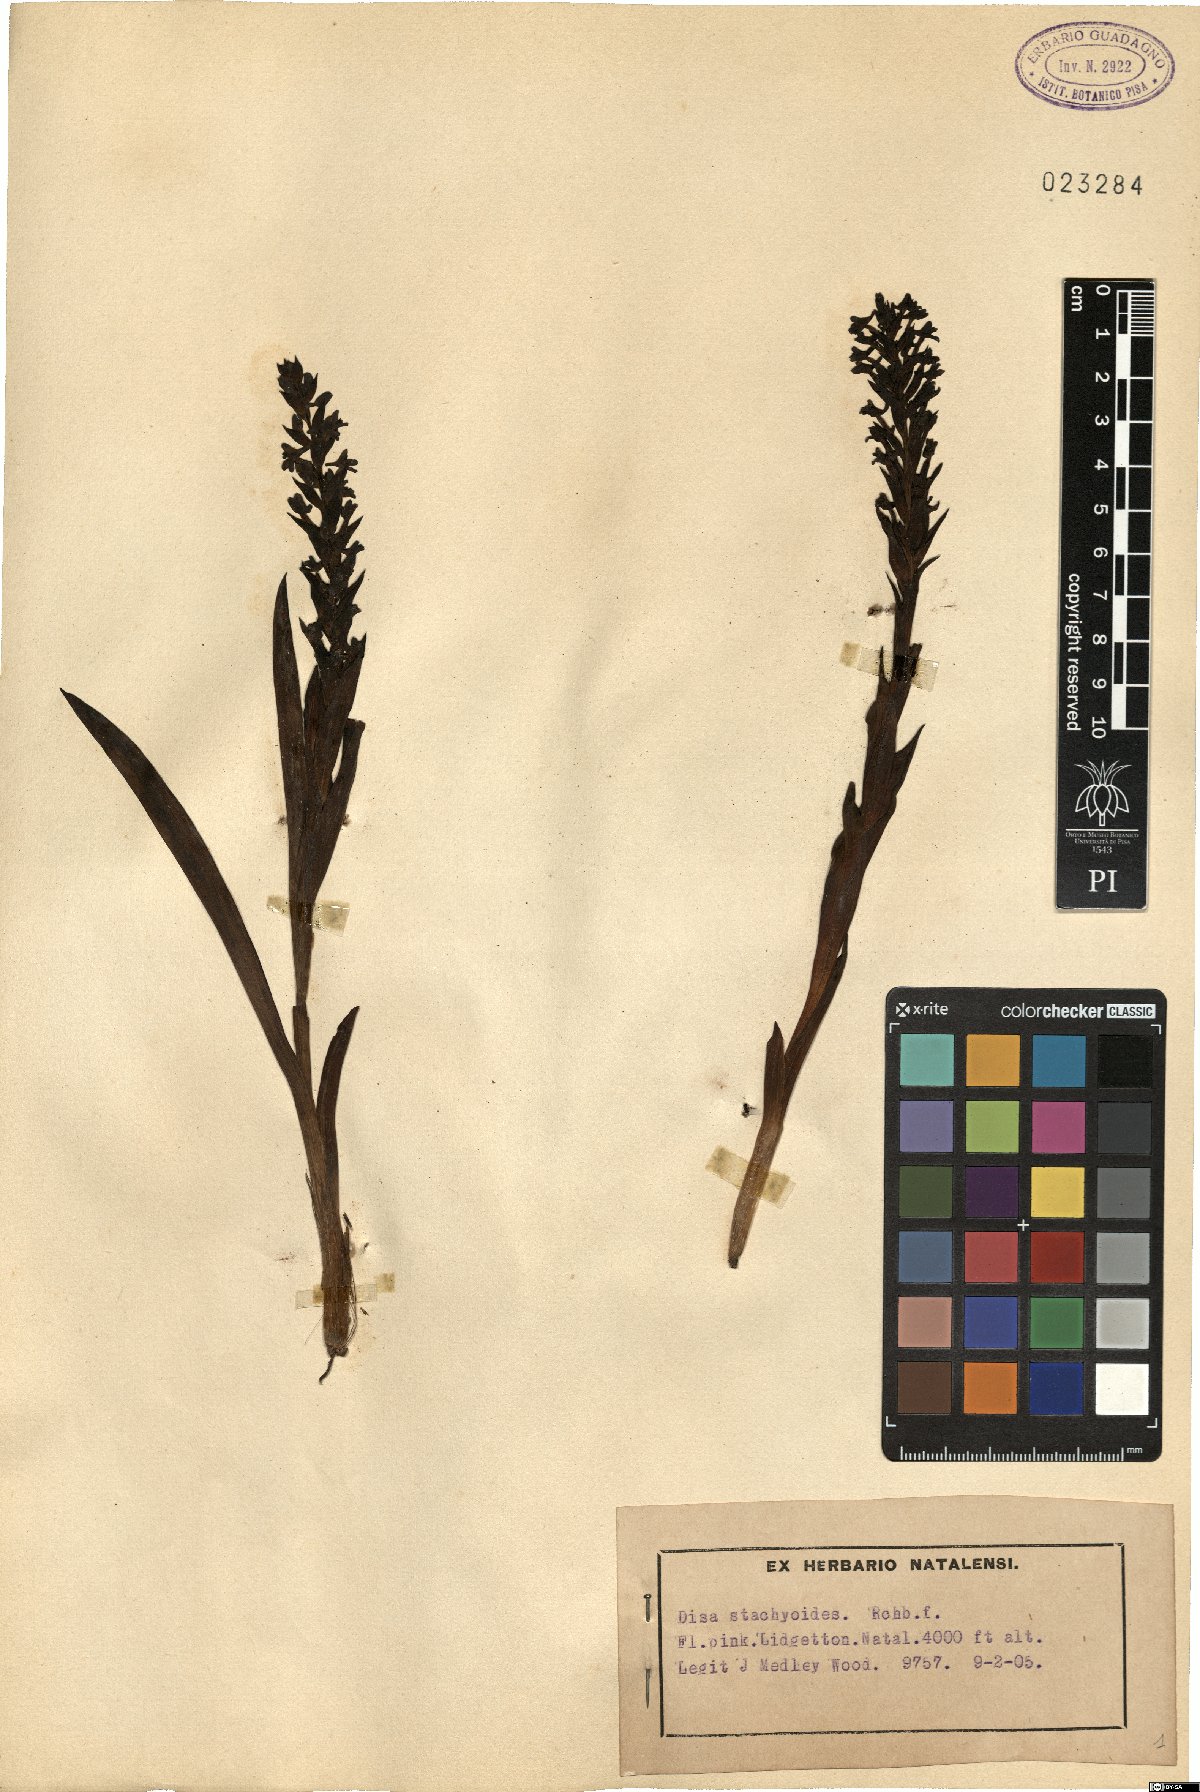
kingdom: Plantae
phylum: Tracheophyta
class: Liliopsida
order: Asparagales
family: Orchidaceae
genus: Disa
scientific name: Disa stachyoides
